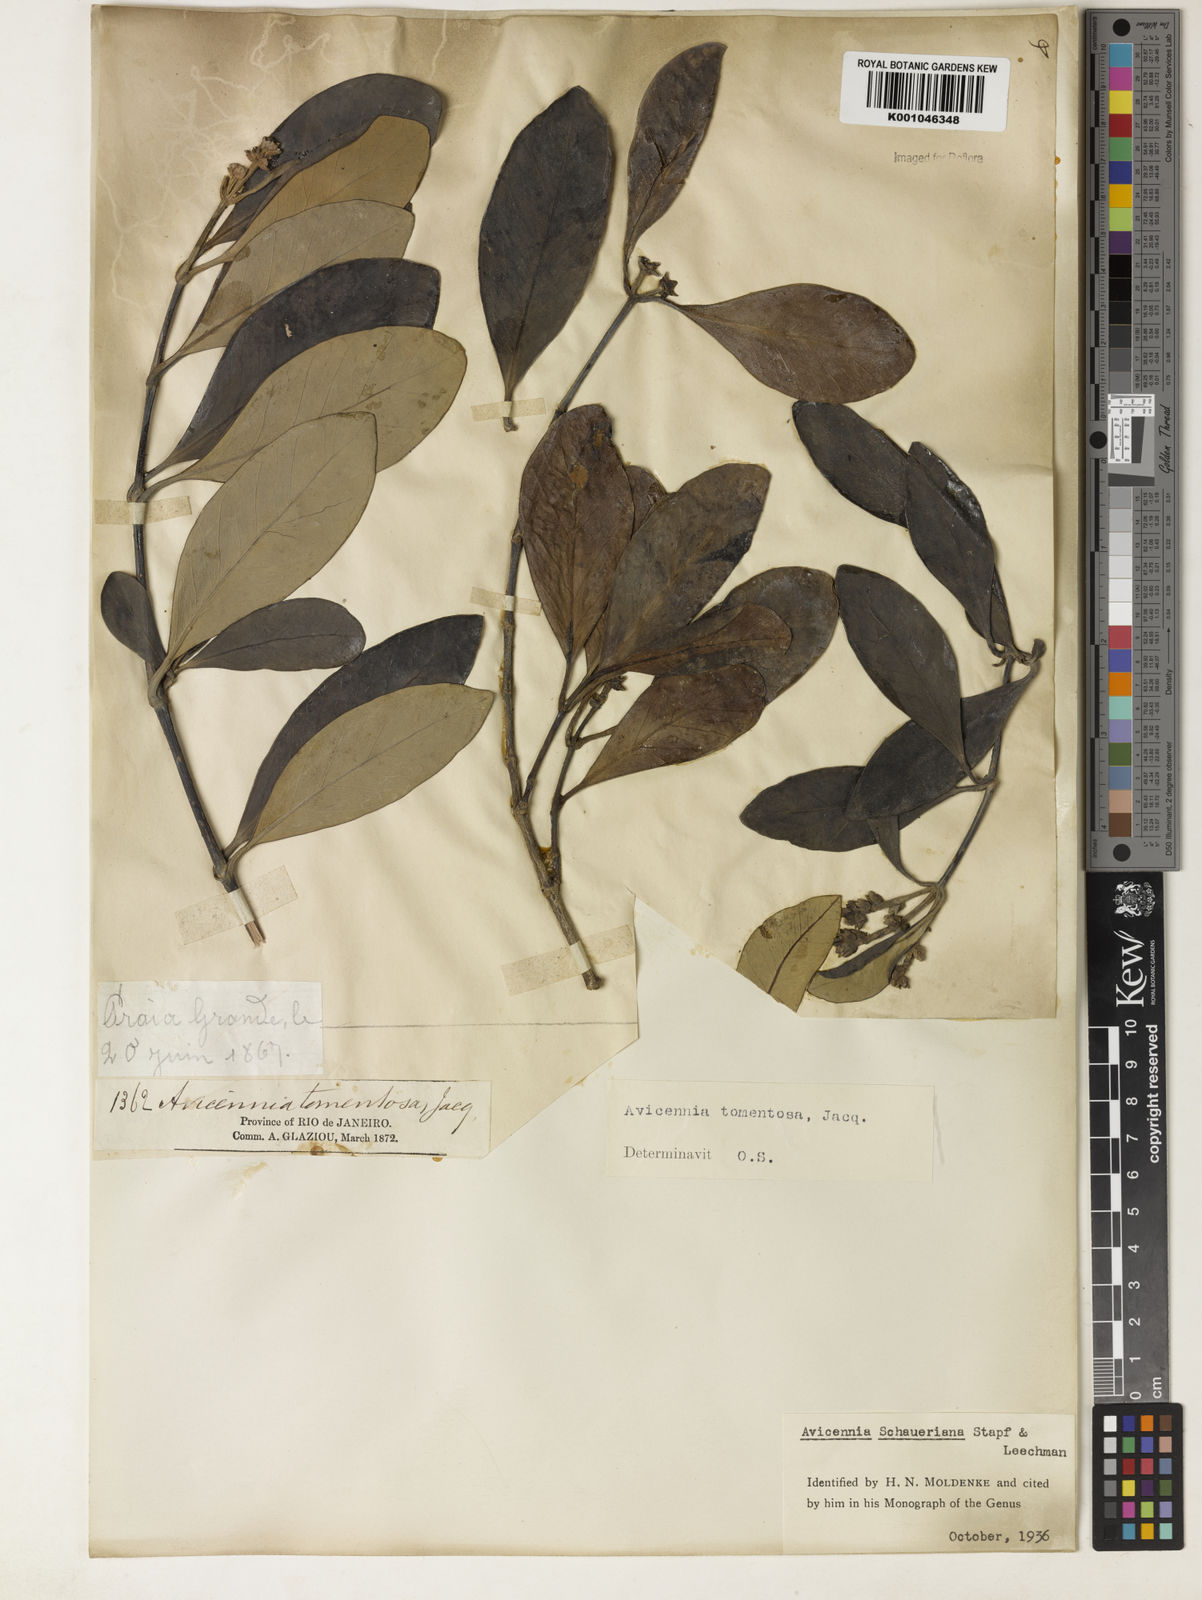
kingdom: Plantae
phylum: Tracheophyta
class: Magnoliopsida
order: Lamiales
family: Acanthaceae
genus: Avicennia
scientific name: Avicennia schaueriana
